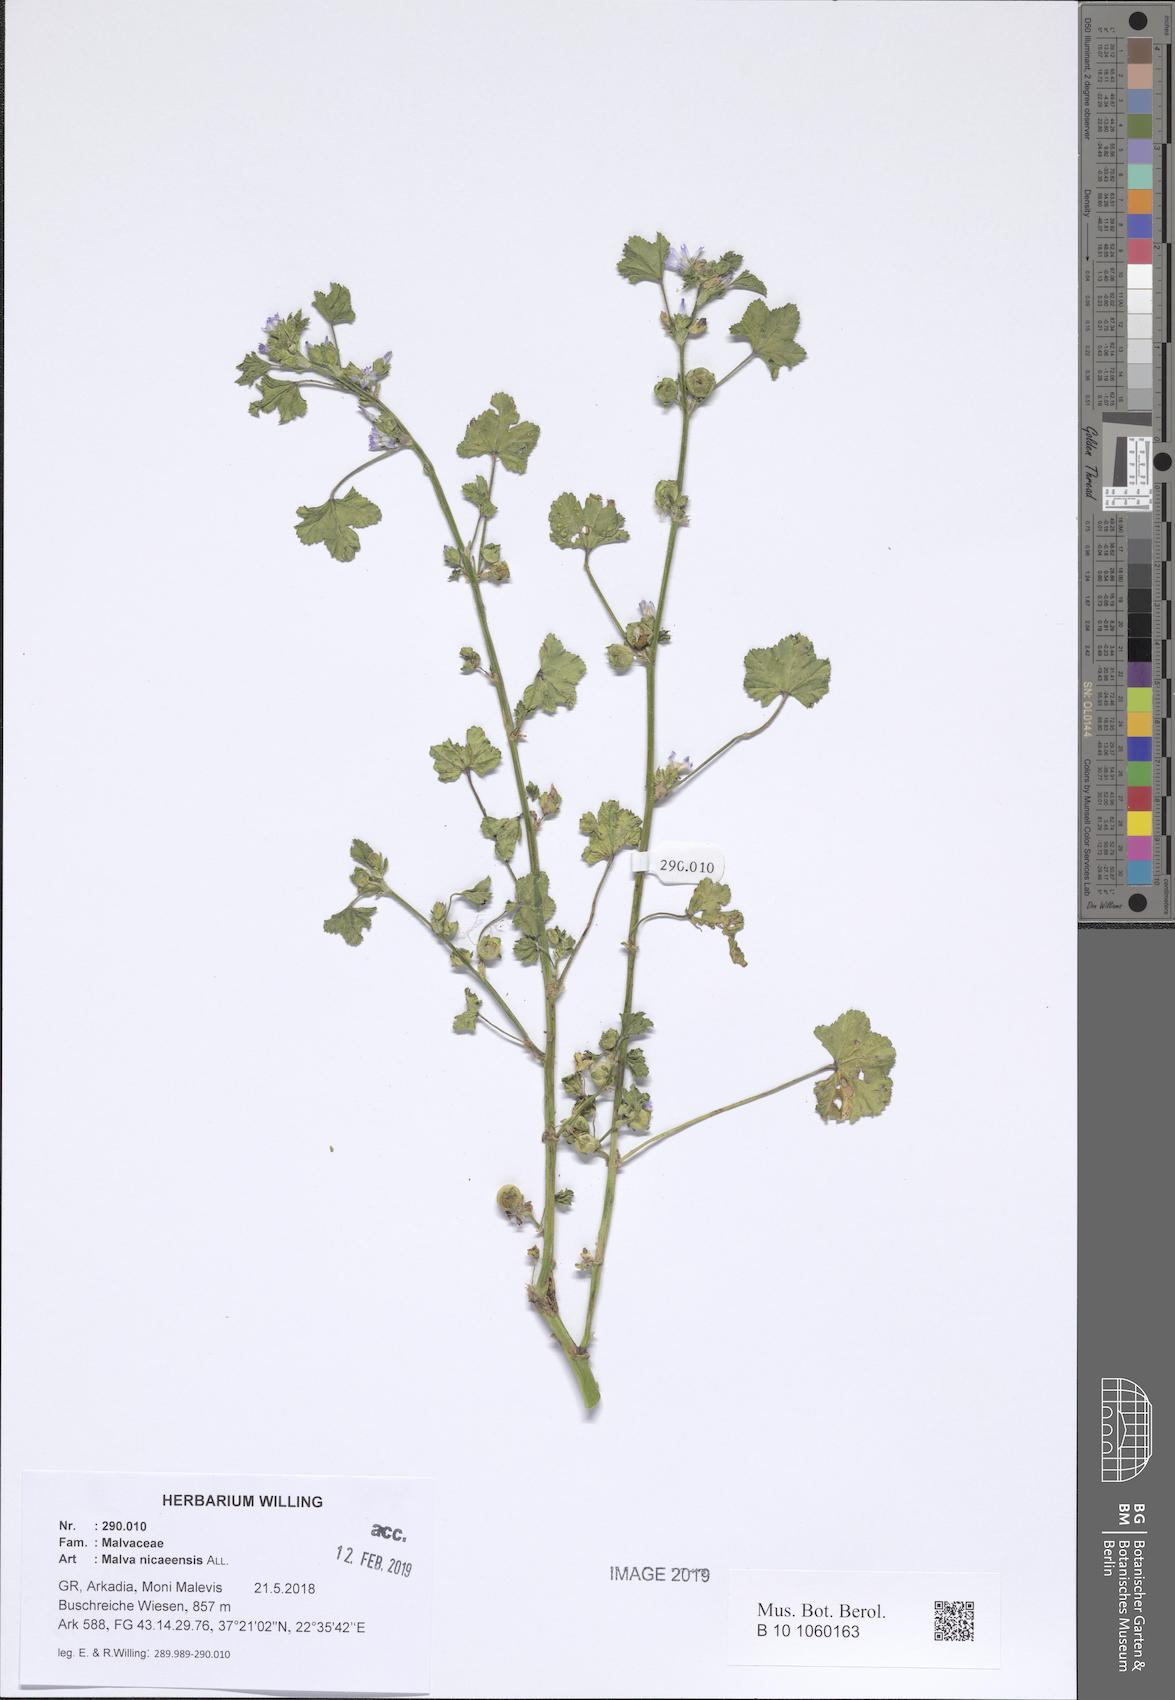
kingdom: Plantae
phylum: Tracheophyta
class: Magnoliopsida
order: Malvales
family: Malvaceae
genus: Malva
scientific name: Malva nicaeensis
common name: French mallow
